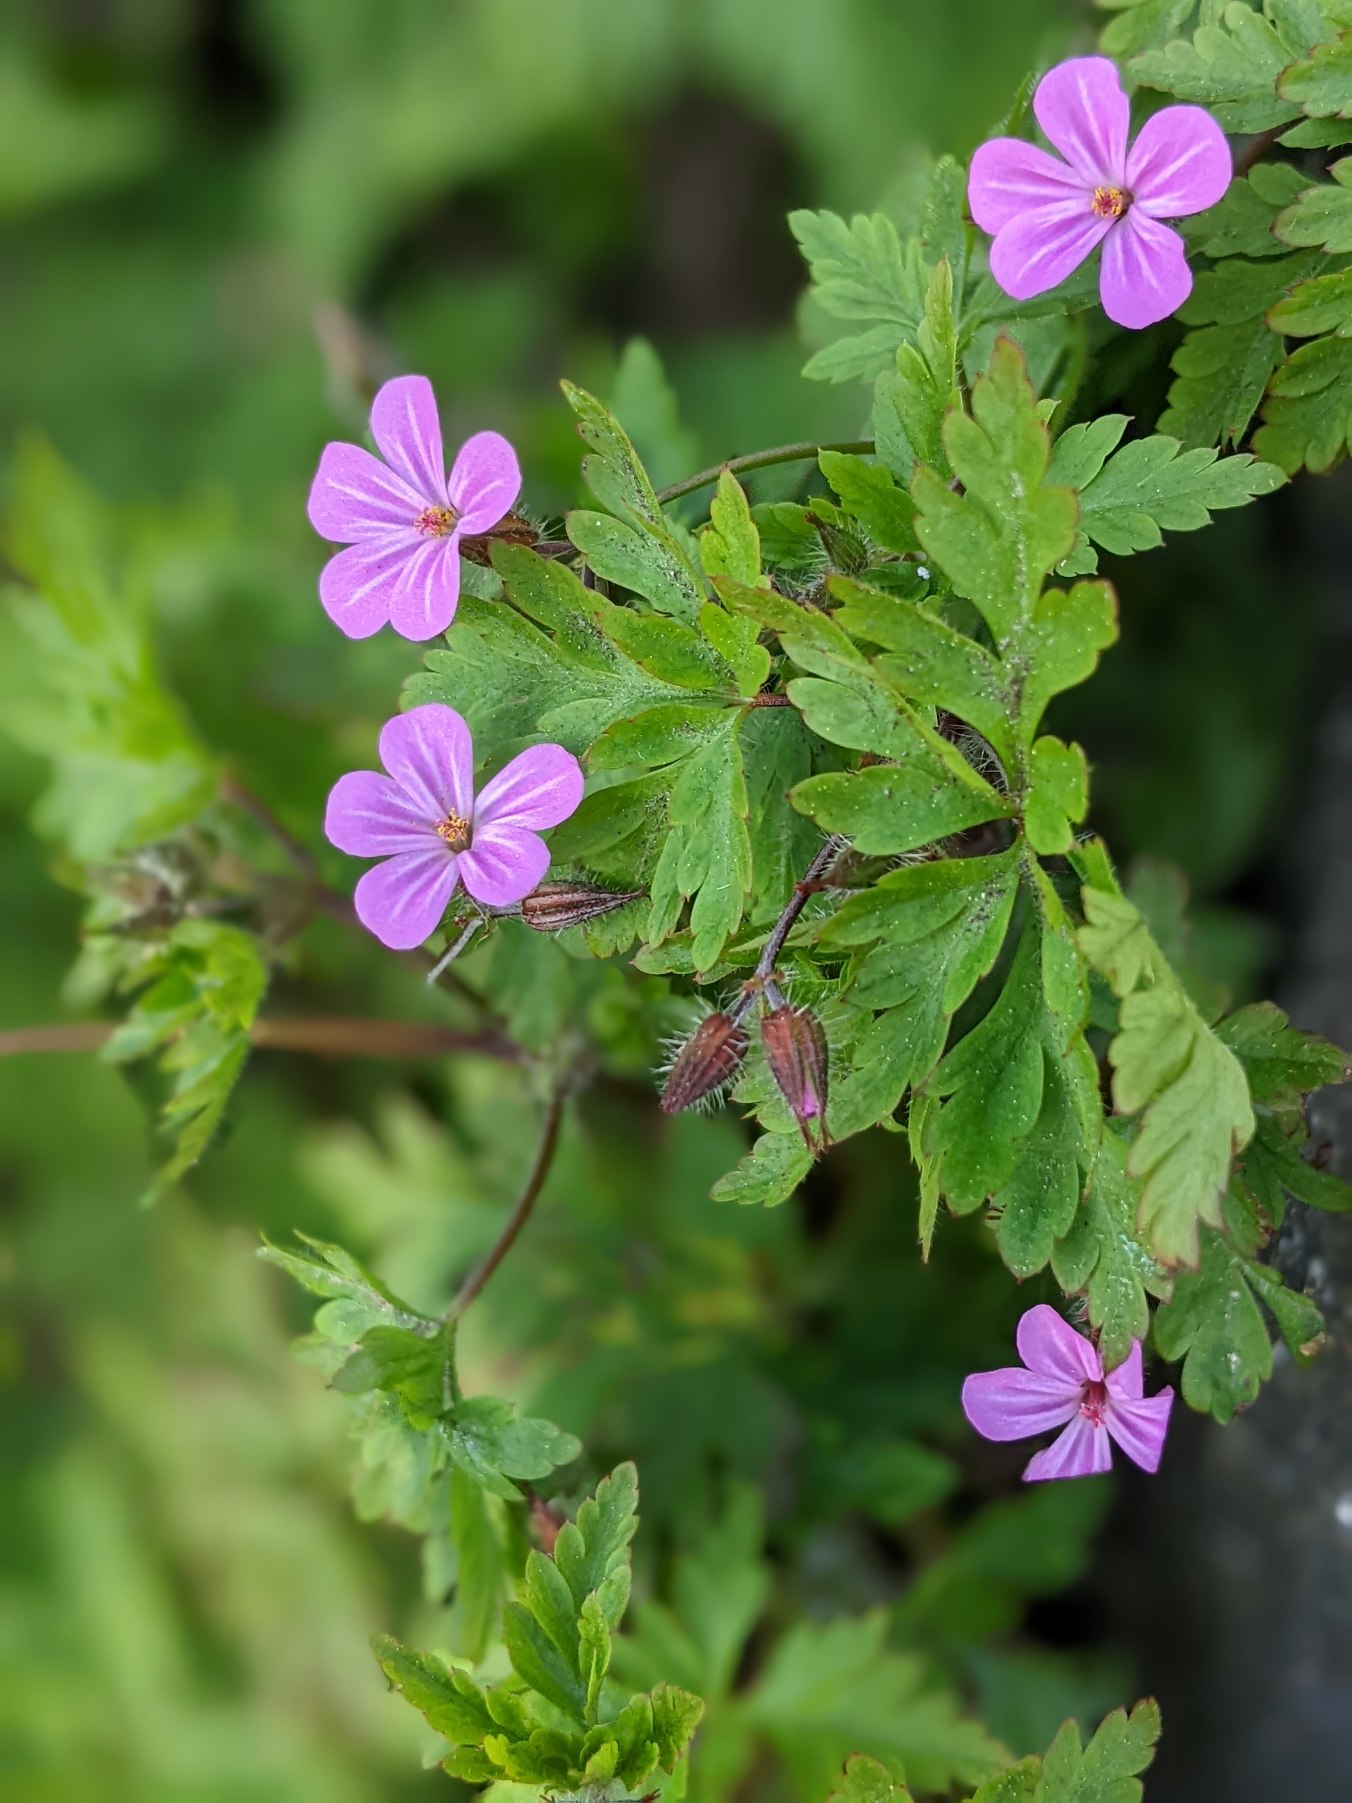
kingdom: Plantae
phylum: Tracheophyta
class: Magnoliopsida
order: Geraniales
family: Geraniaceae
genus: Geranium
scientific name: Geranium robertianum
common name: Stinkende storkenæb
